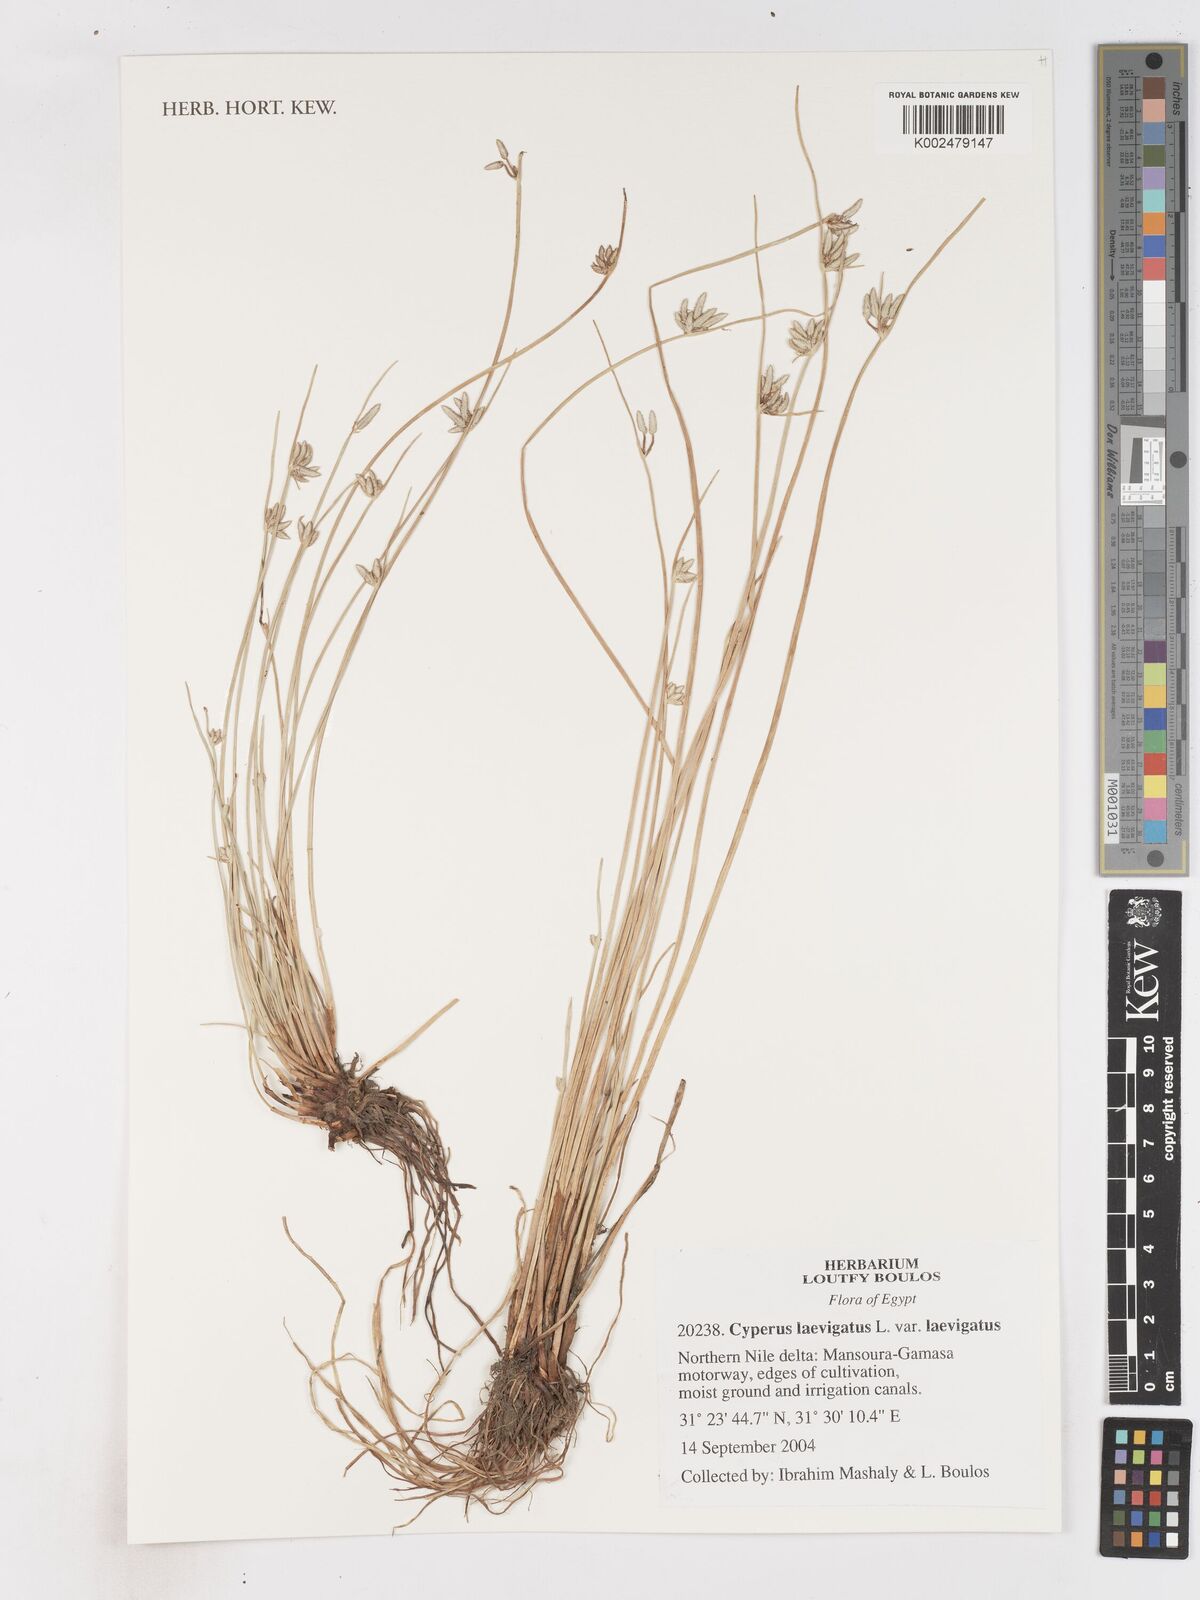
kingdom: Plantae
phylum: Tracheophyta
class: Liliopsida
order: Poales
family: Cyperaceae
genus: Cyperus
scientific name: Cyperus laevigatus
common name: Smooth flat sedge
